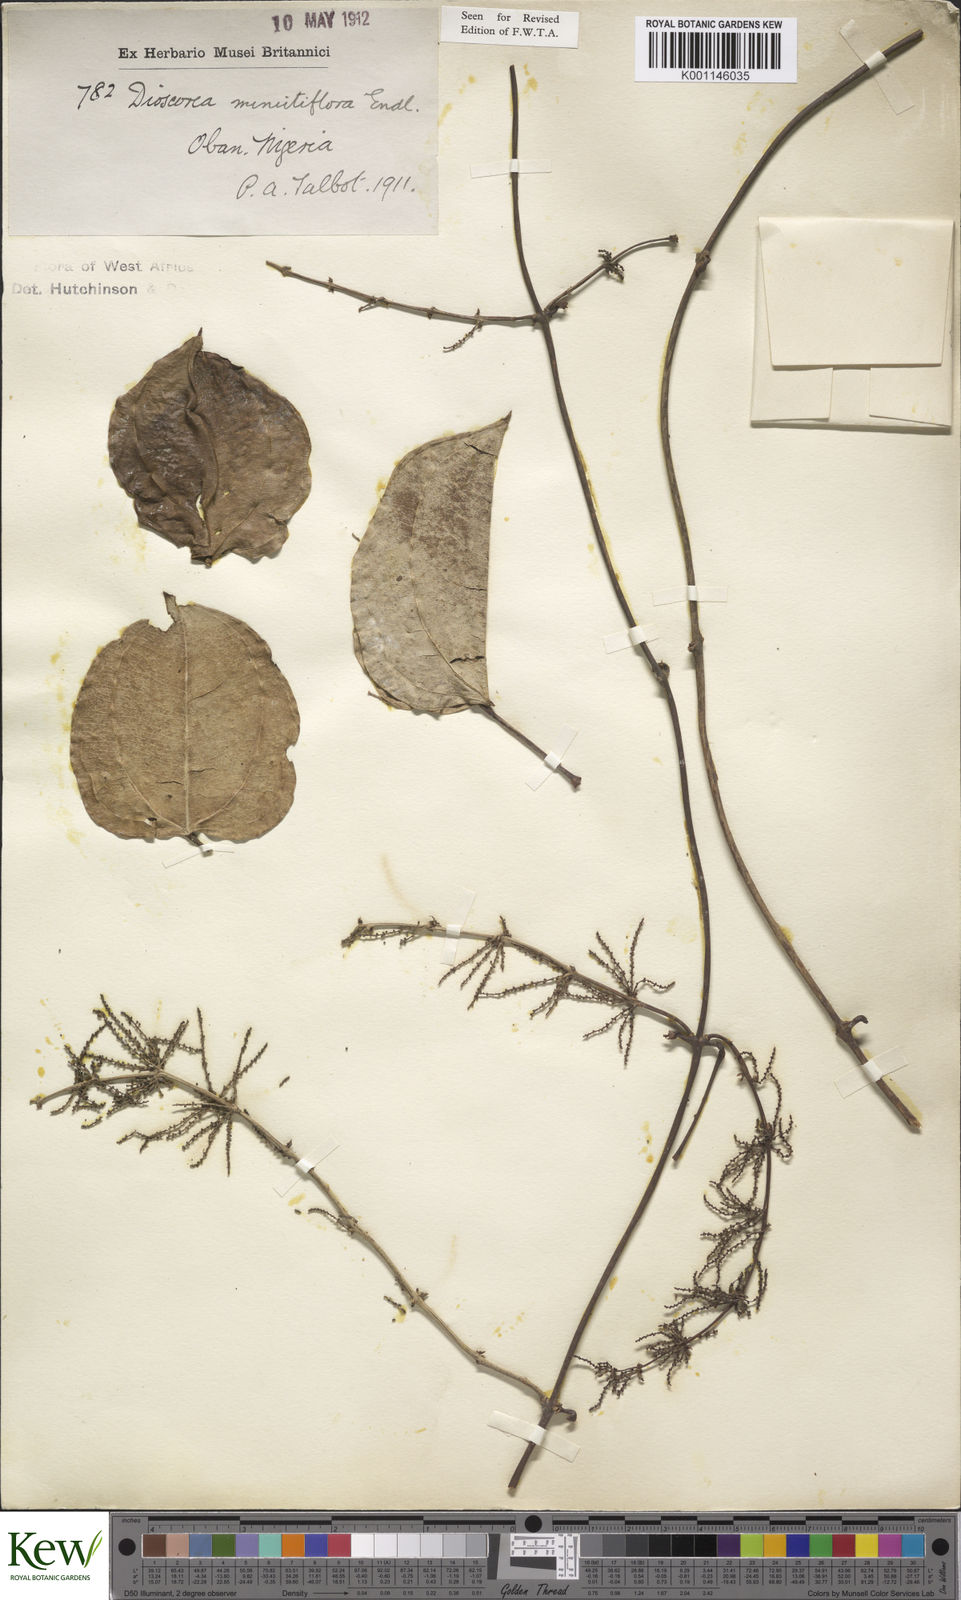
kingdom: Plantae
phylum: Tracheophyta
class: Liliopsida
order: Dioscoreales
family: Dioscoreaceae
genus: Dioscorea
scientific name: Dioscorea minutiflora
